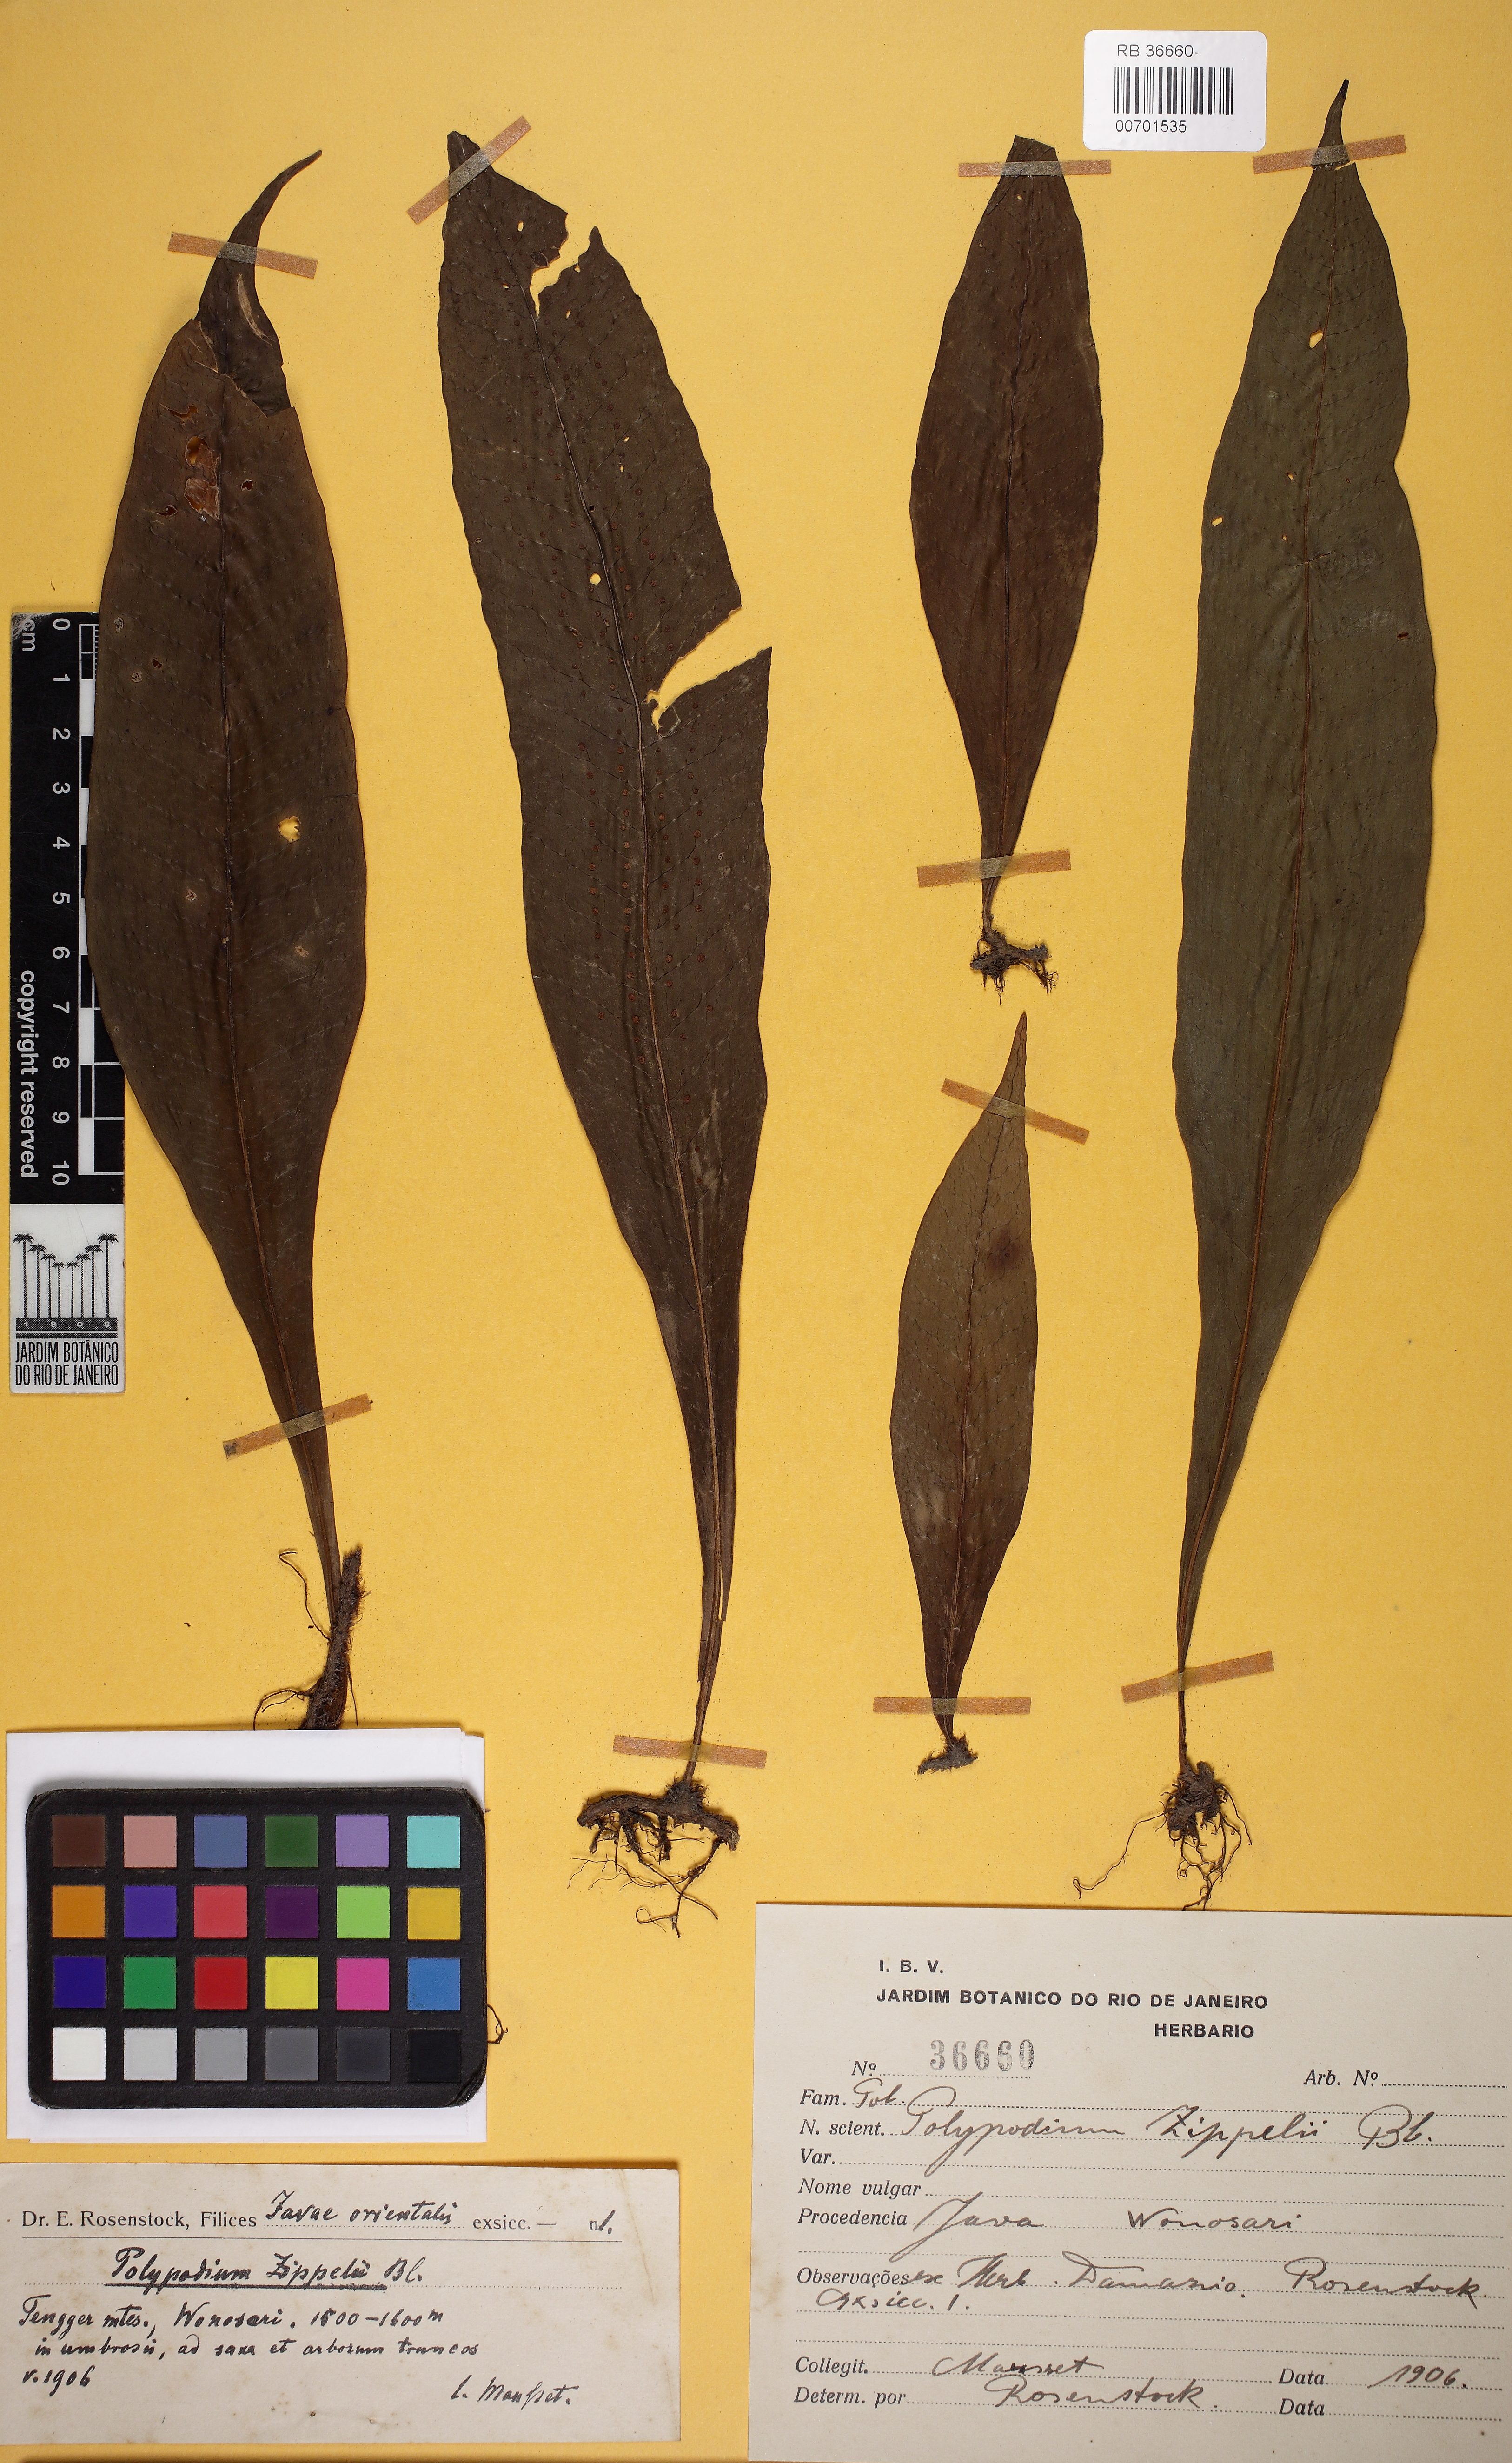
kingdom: Plantae
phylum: Tracheophyta
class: Polypodiopsida
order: Polypodiales
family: Polypodiaceae
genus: Lepisorus
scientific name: Lepisorus zippelii
